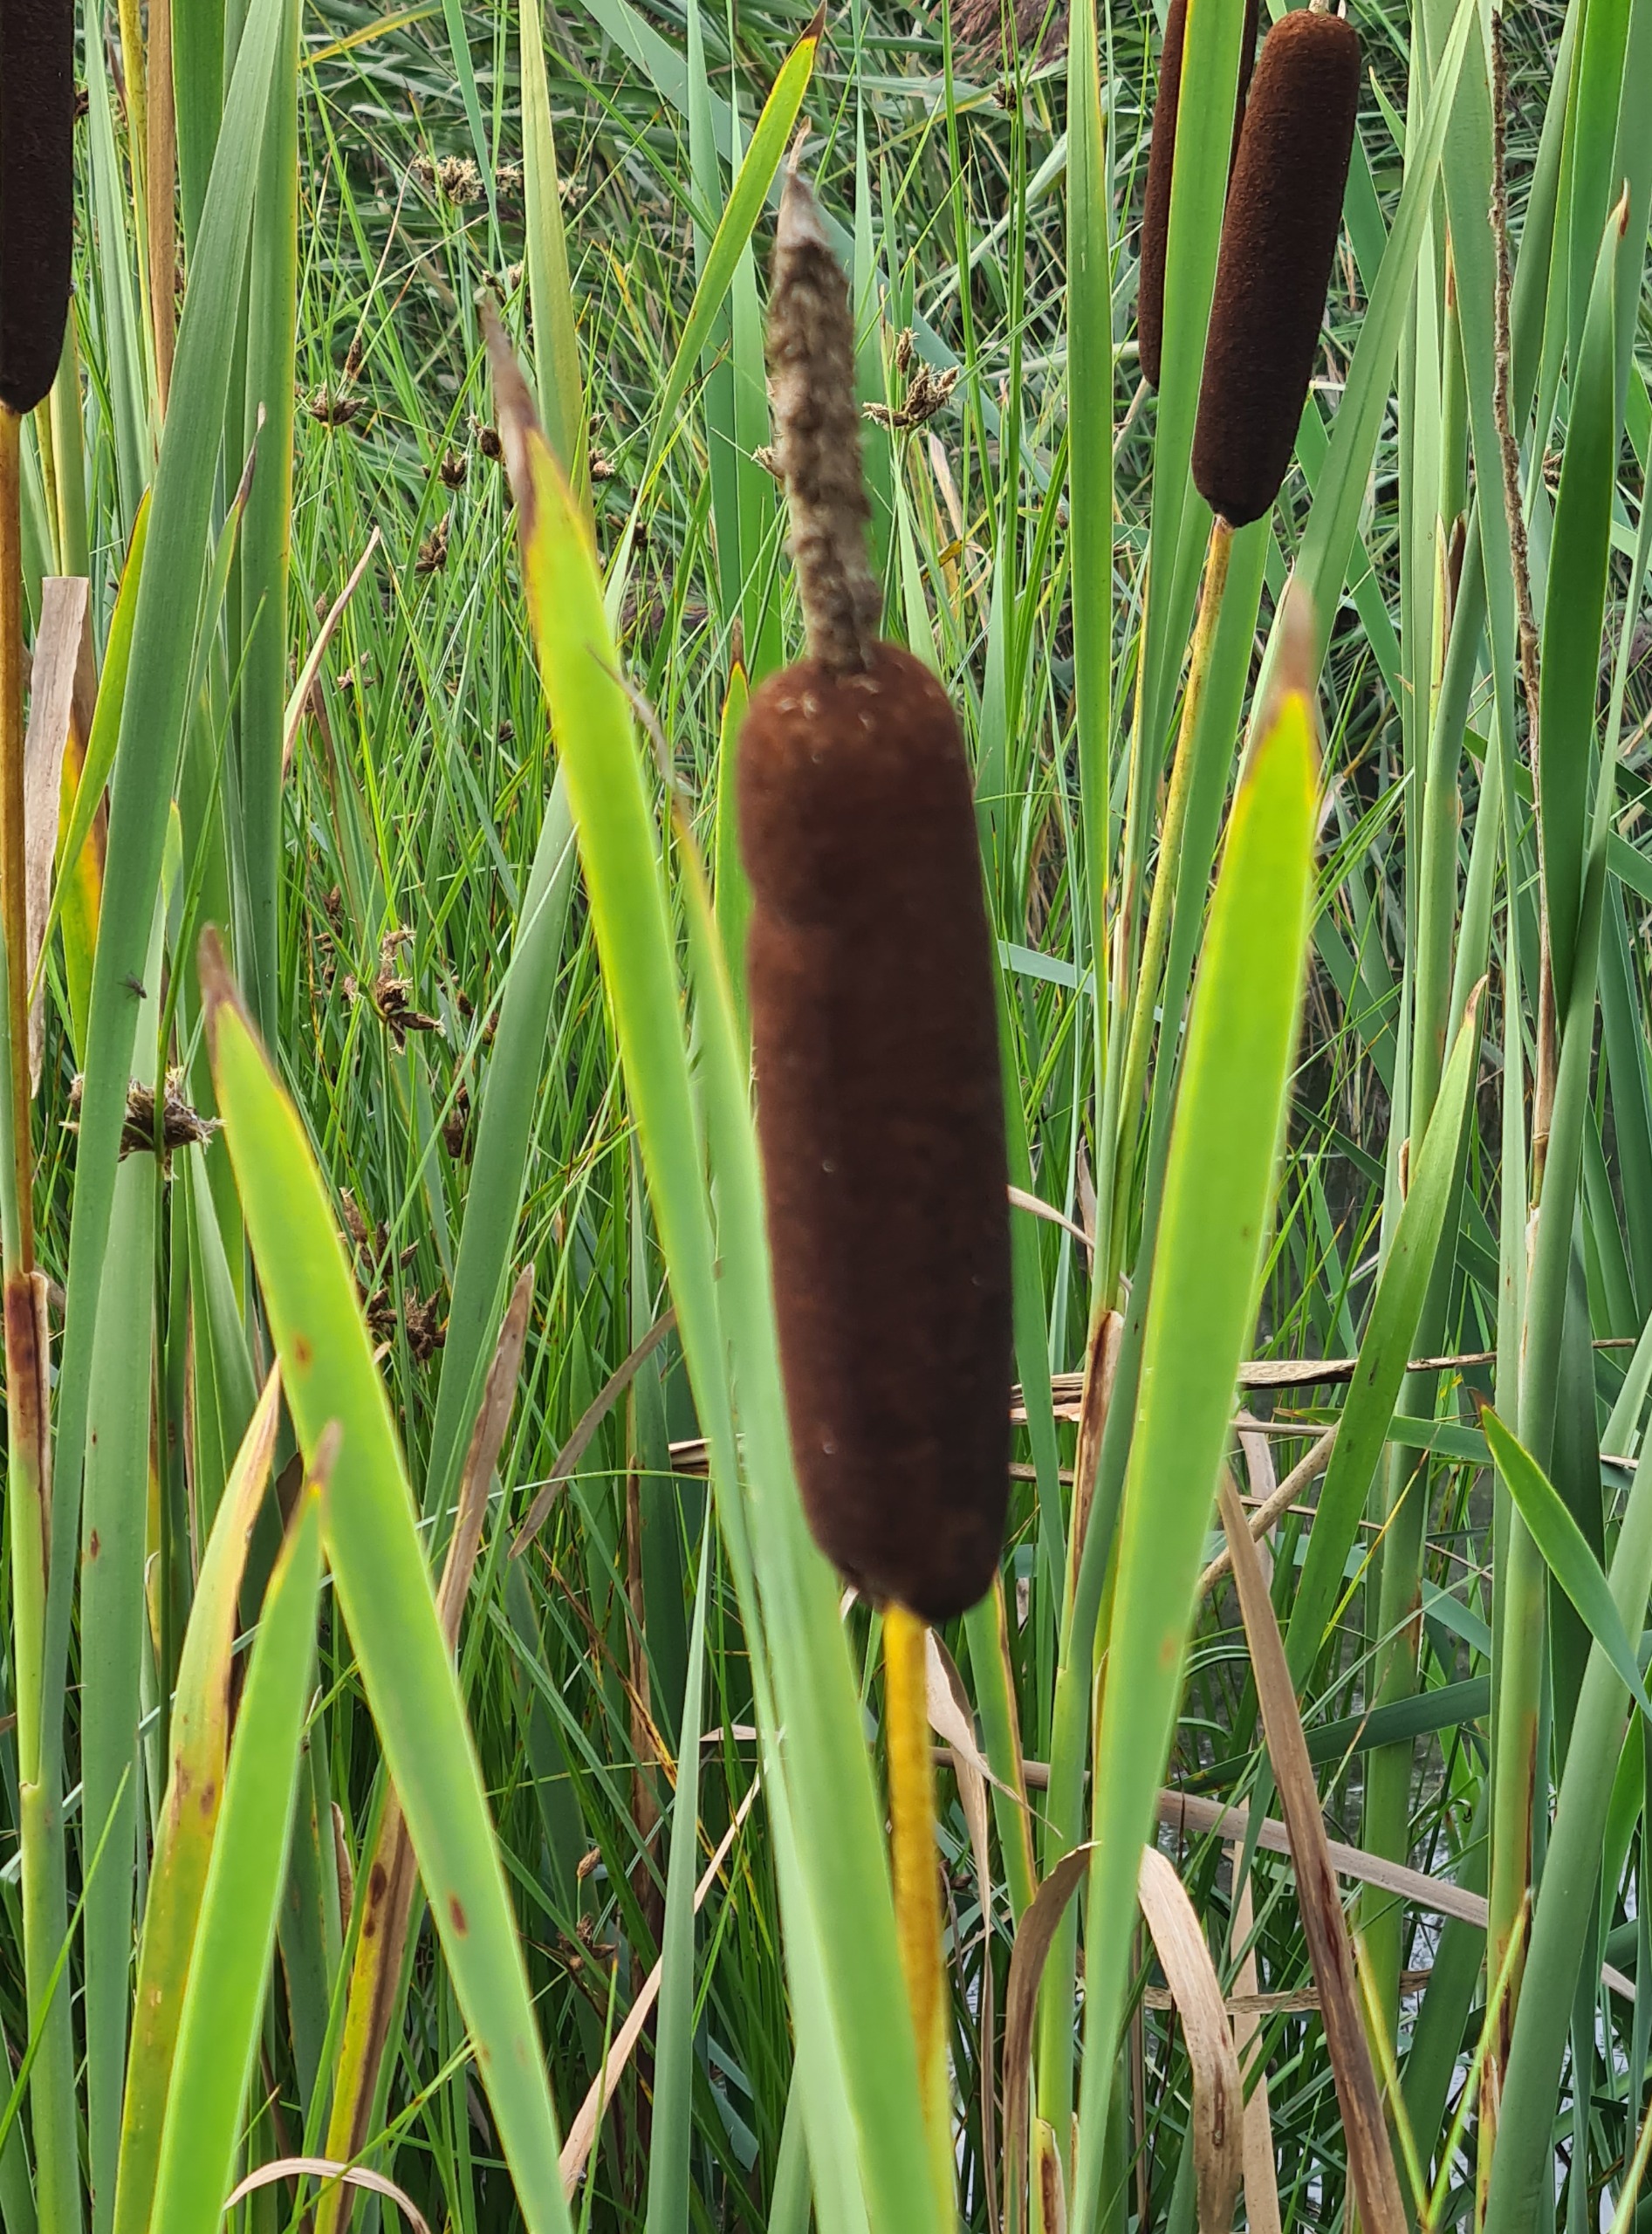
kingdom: Plantae
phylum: Tracheophyta
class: Liliopsida
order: Poales
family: Typhaceae
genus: Typha
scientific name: Typha latifolia
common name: Bredbladet dunhammer
